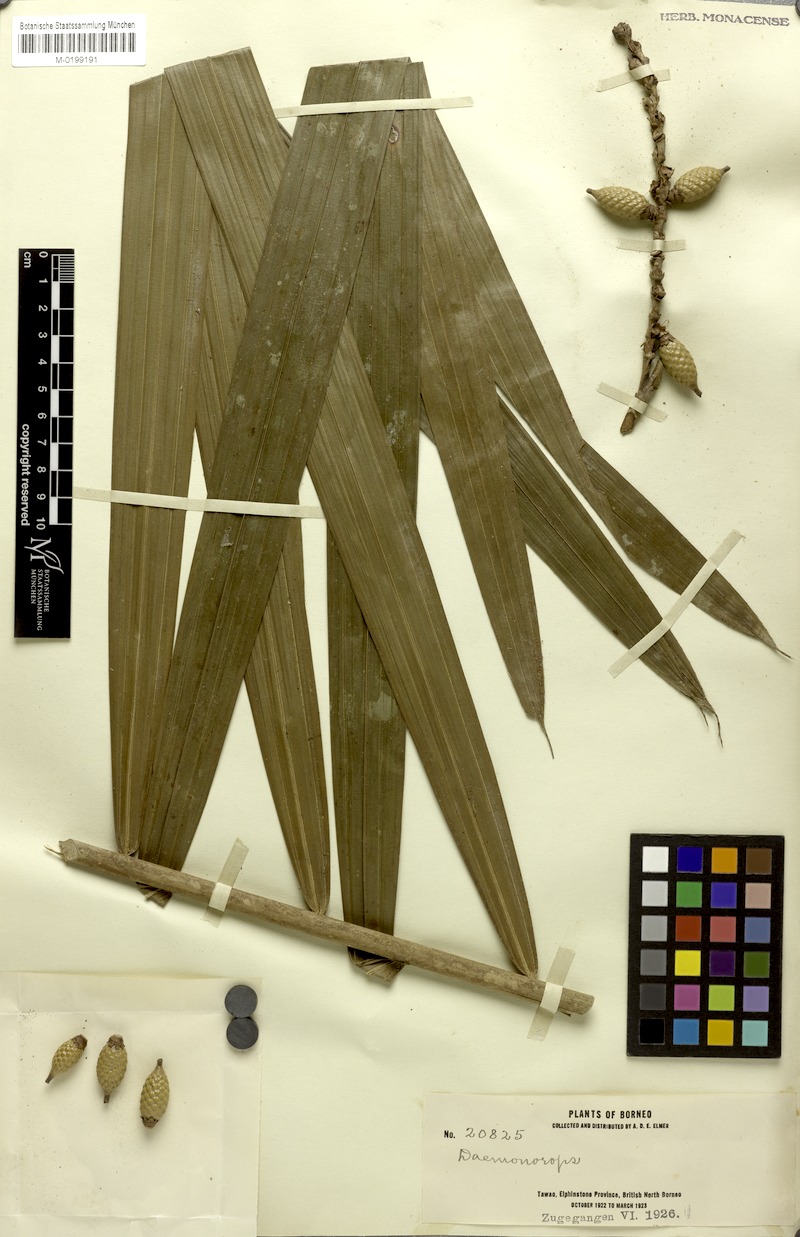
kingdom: Plantae
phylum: Tracheophyta
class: Liliopsida
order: Arecales
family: Arecaceae
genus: Calamus
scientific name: Calamus ruptilis
